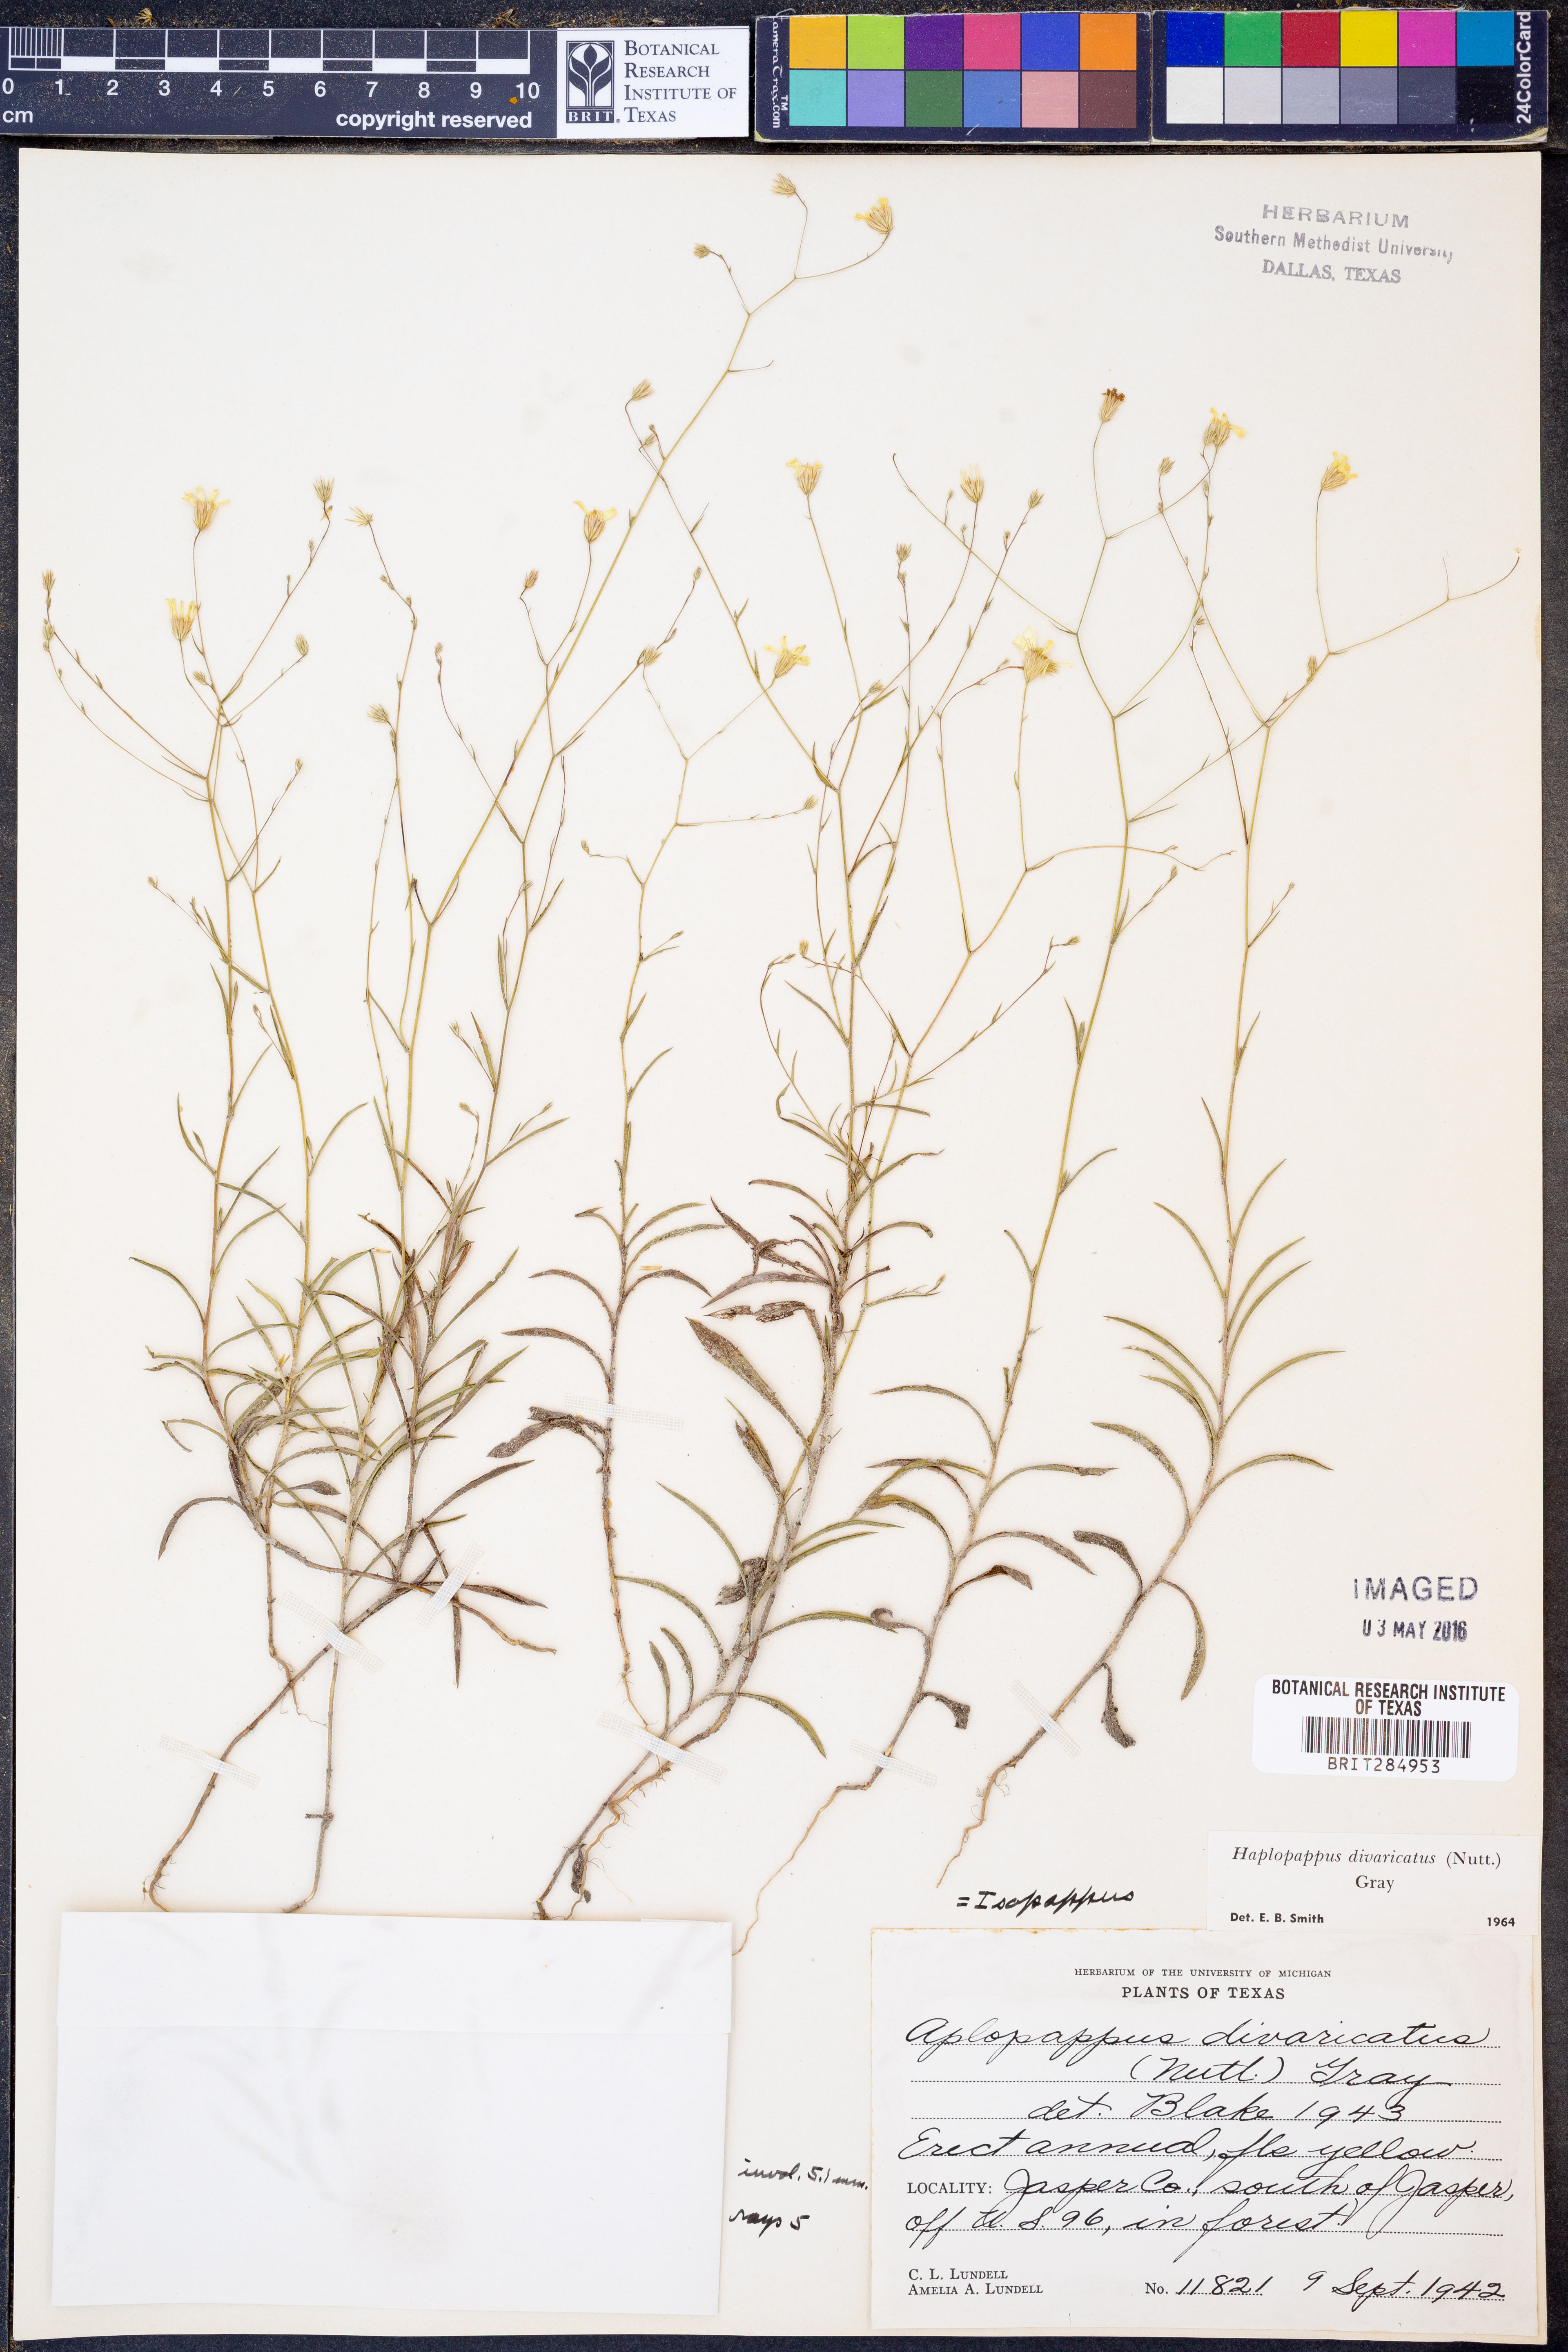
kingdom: Plantae
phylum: Tracheophyta
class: Magnoliopsida
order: Asterales
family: Asteraceae
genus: Croptilon
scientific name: Croptilon divaricatum
